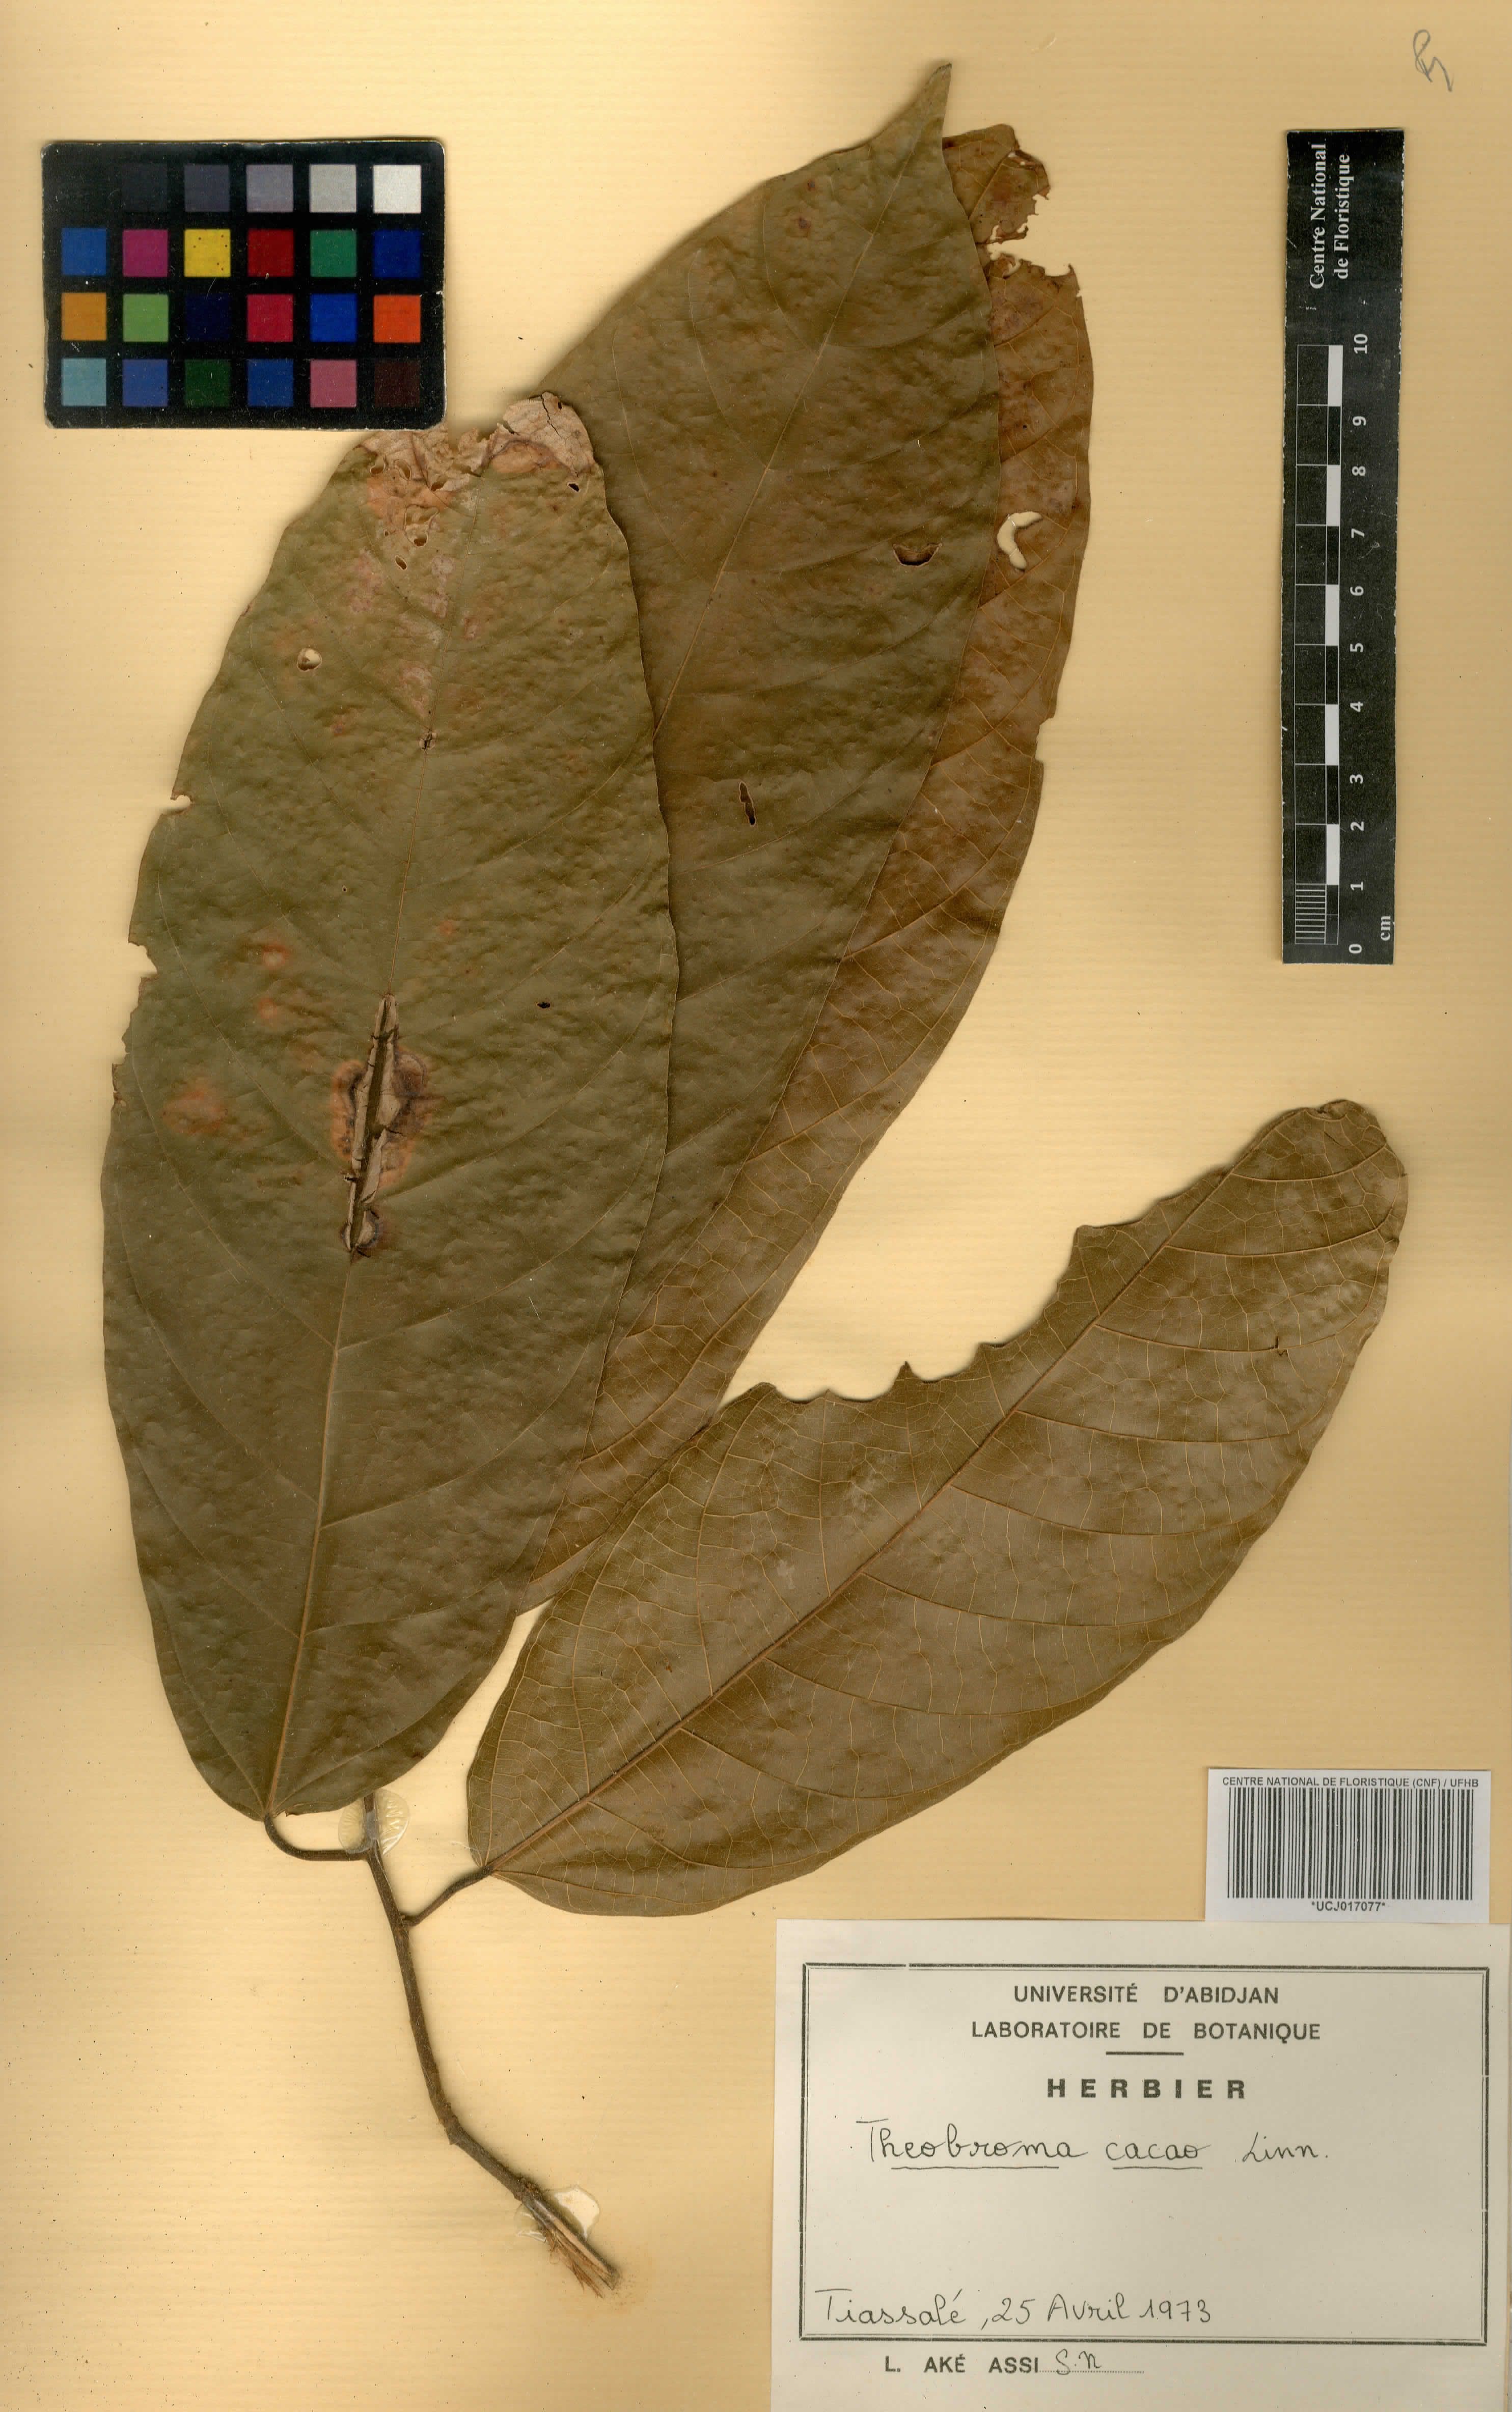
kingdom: Plantae
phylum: Tracheophyta
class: Magnoliopsida
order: Malvales
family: Malvaceae
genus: Theobroma
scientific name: Theobroma cacao
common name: Cocoa
